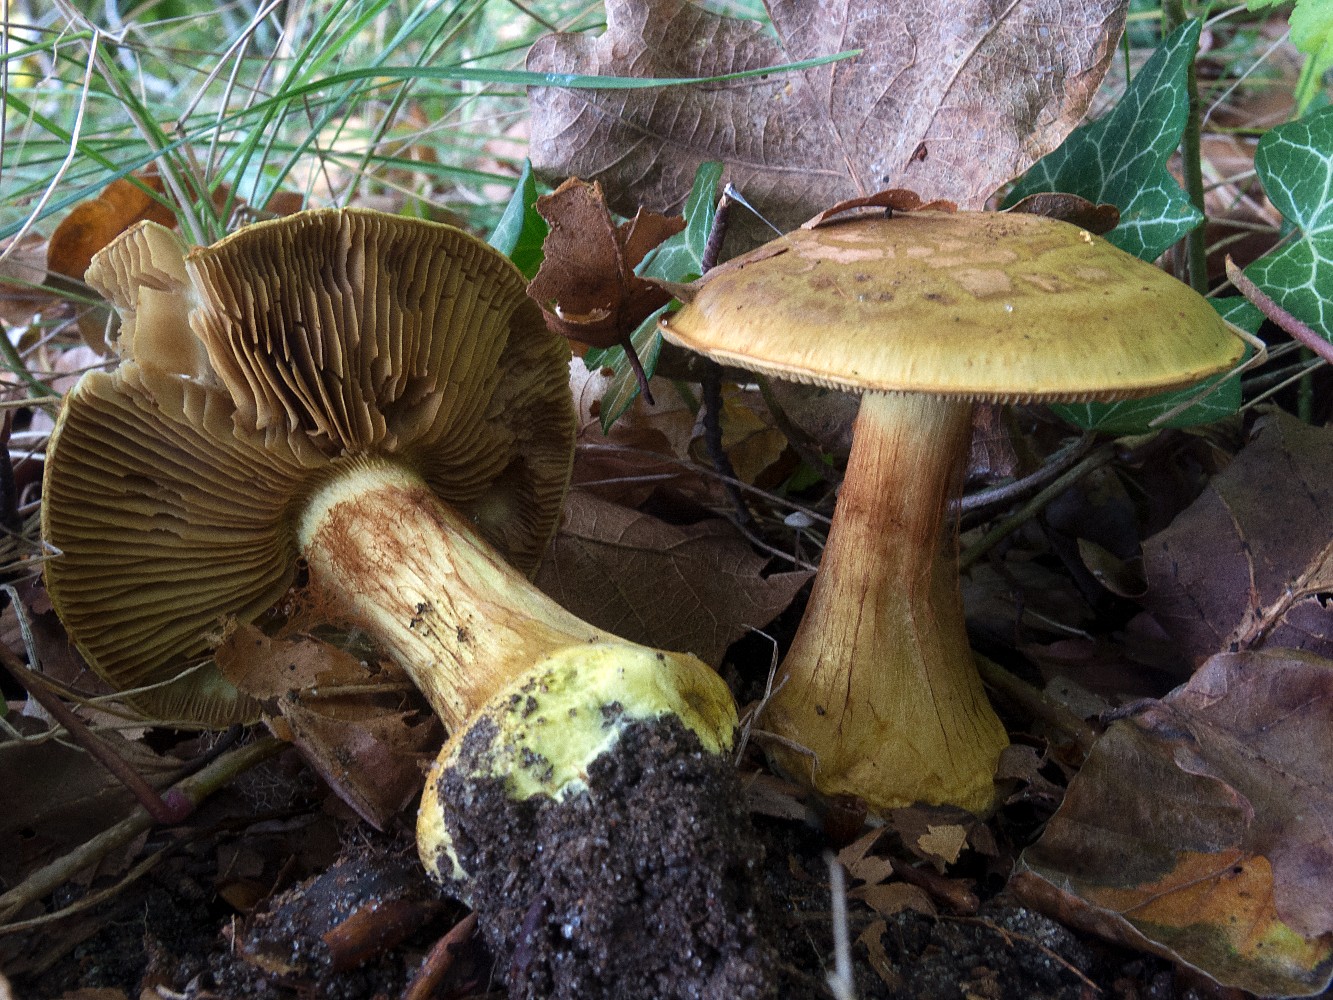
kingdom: Fungi
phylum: Basidiomycota
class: Agaricomycetes
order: Agaricales
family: Cortinariaceae
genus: Calonarius
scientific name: Calonarius odoratus
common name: krydret slørhat
